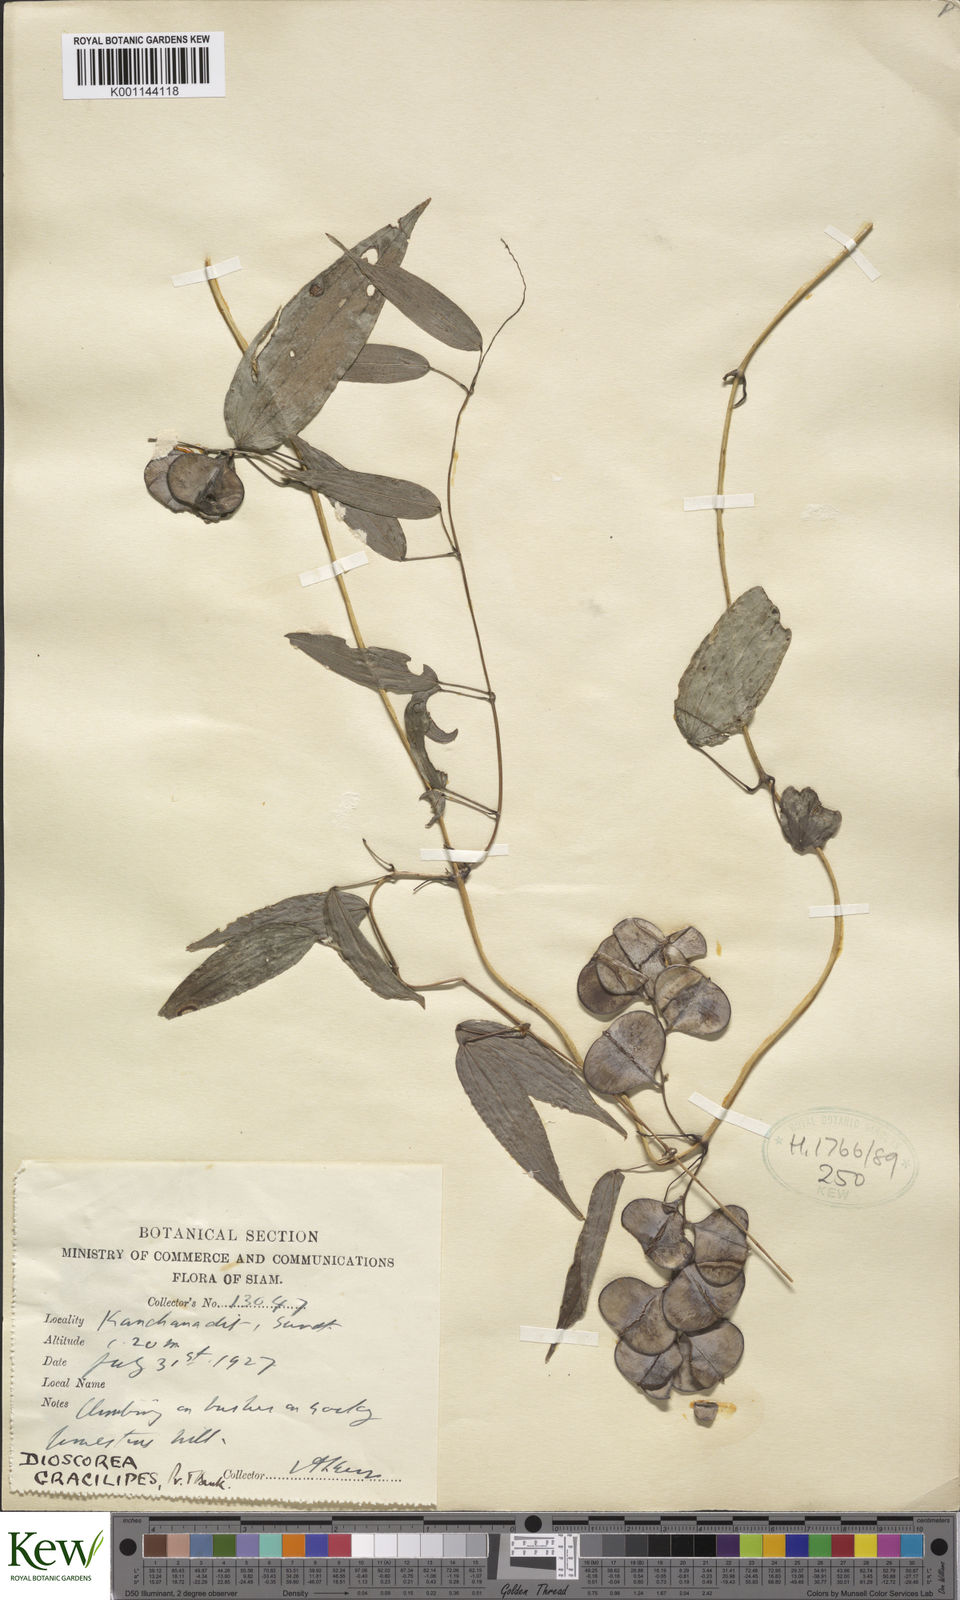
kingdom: Plantae
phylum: Tracheophyta
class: Liliopsida
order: Dioscoreales
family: Dioscoreaceae
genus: Dioscorea
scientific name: Dioscorea gracilipes
